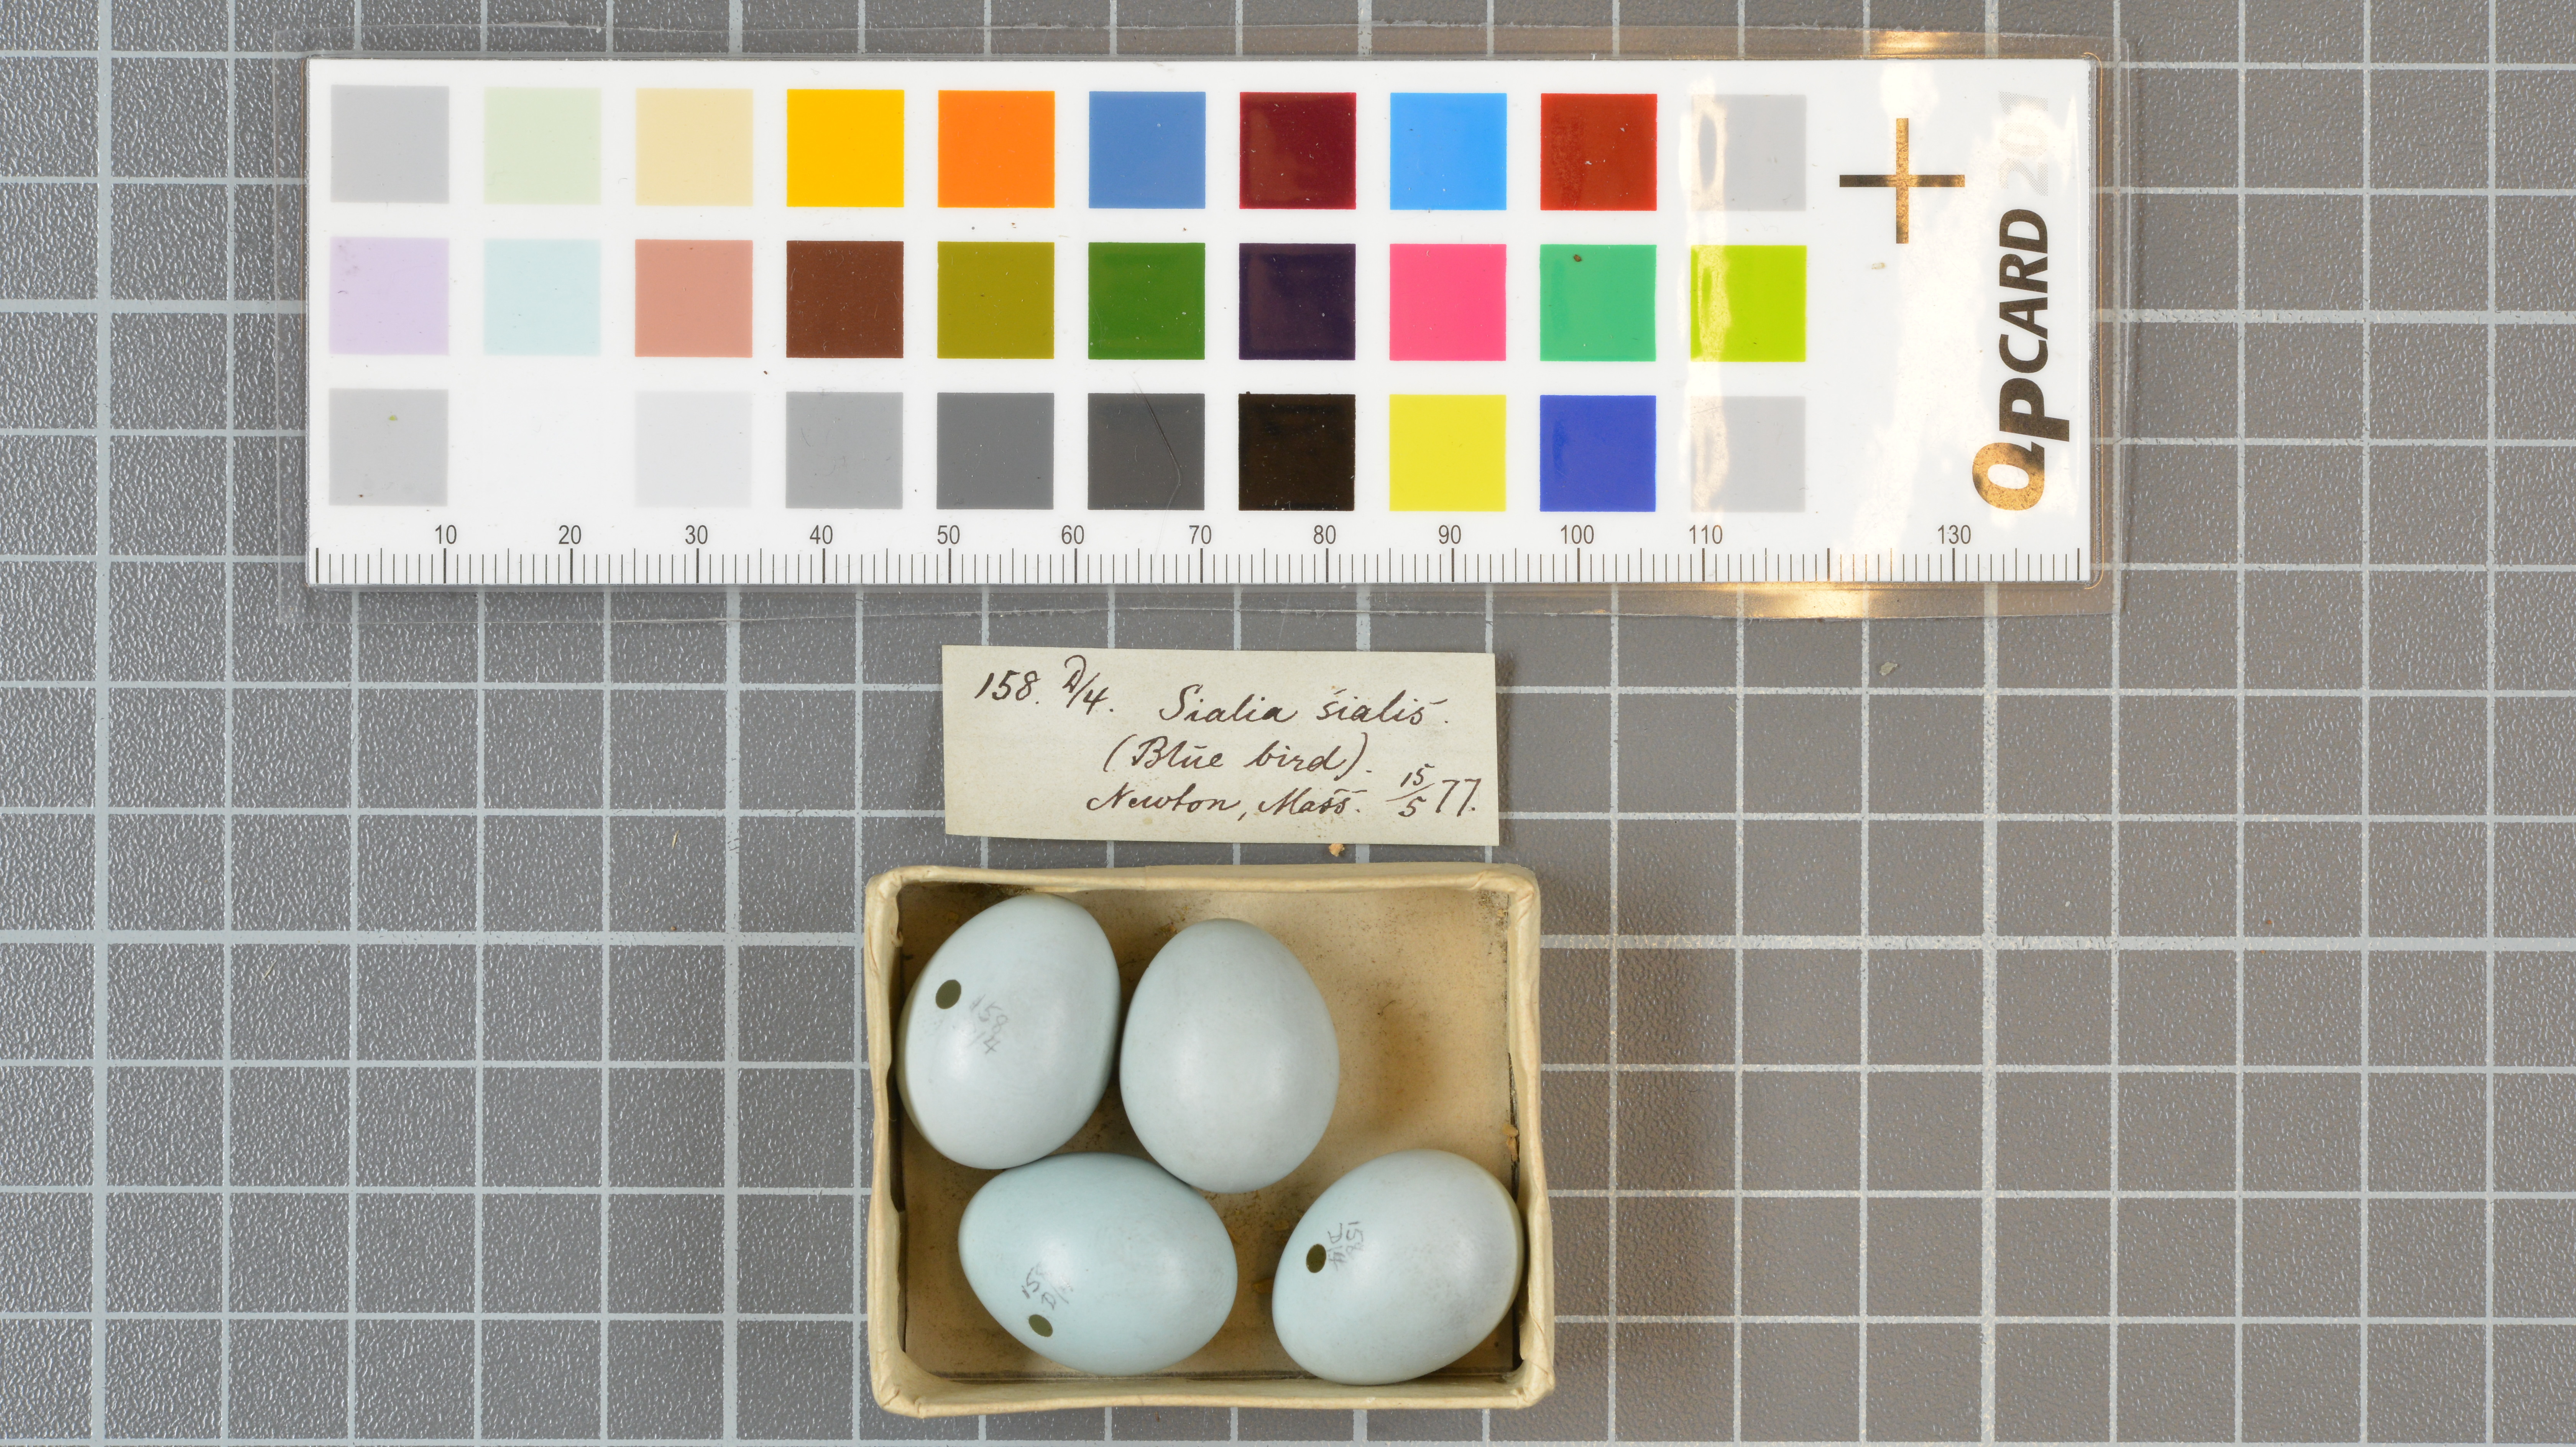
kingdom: Animalia
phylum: Chordata
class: Aves
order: Passeriformes
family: Turdidae
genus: Sialia
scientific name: Sialia sialis
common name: Eastern bluebird
